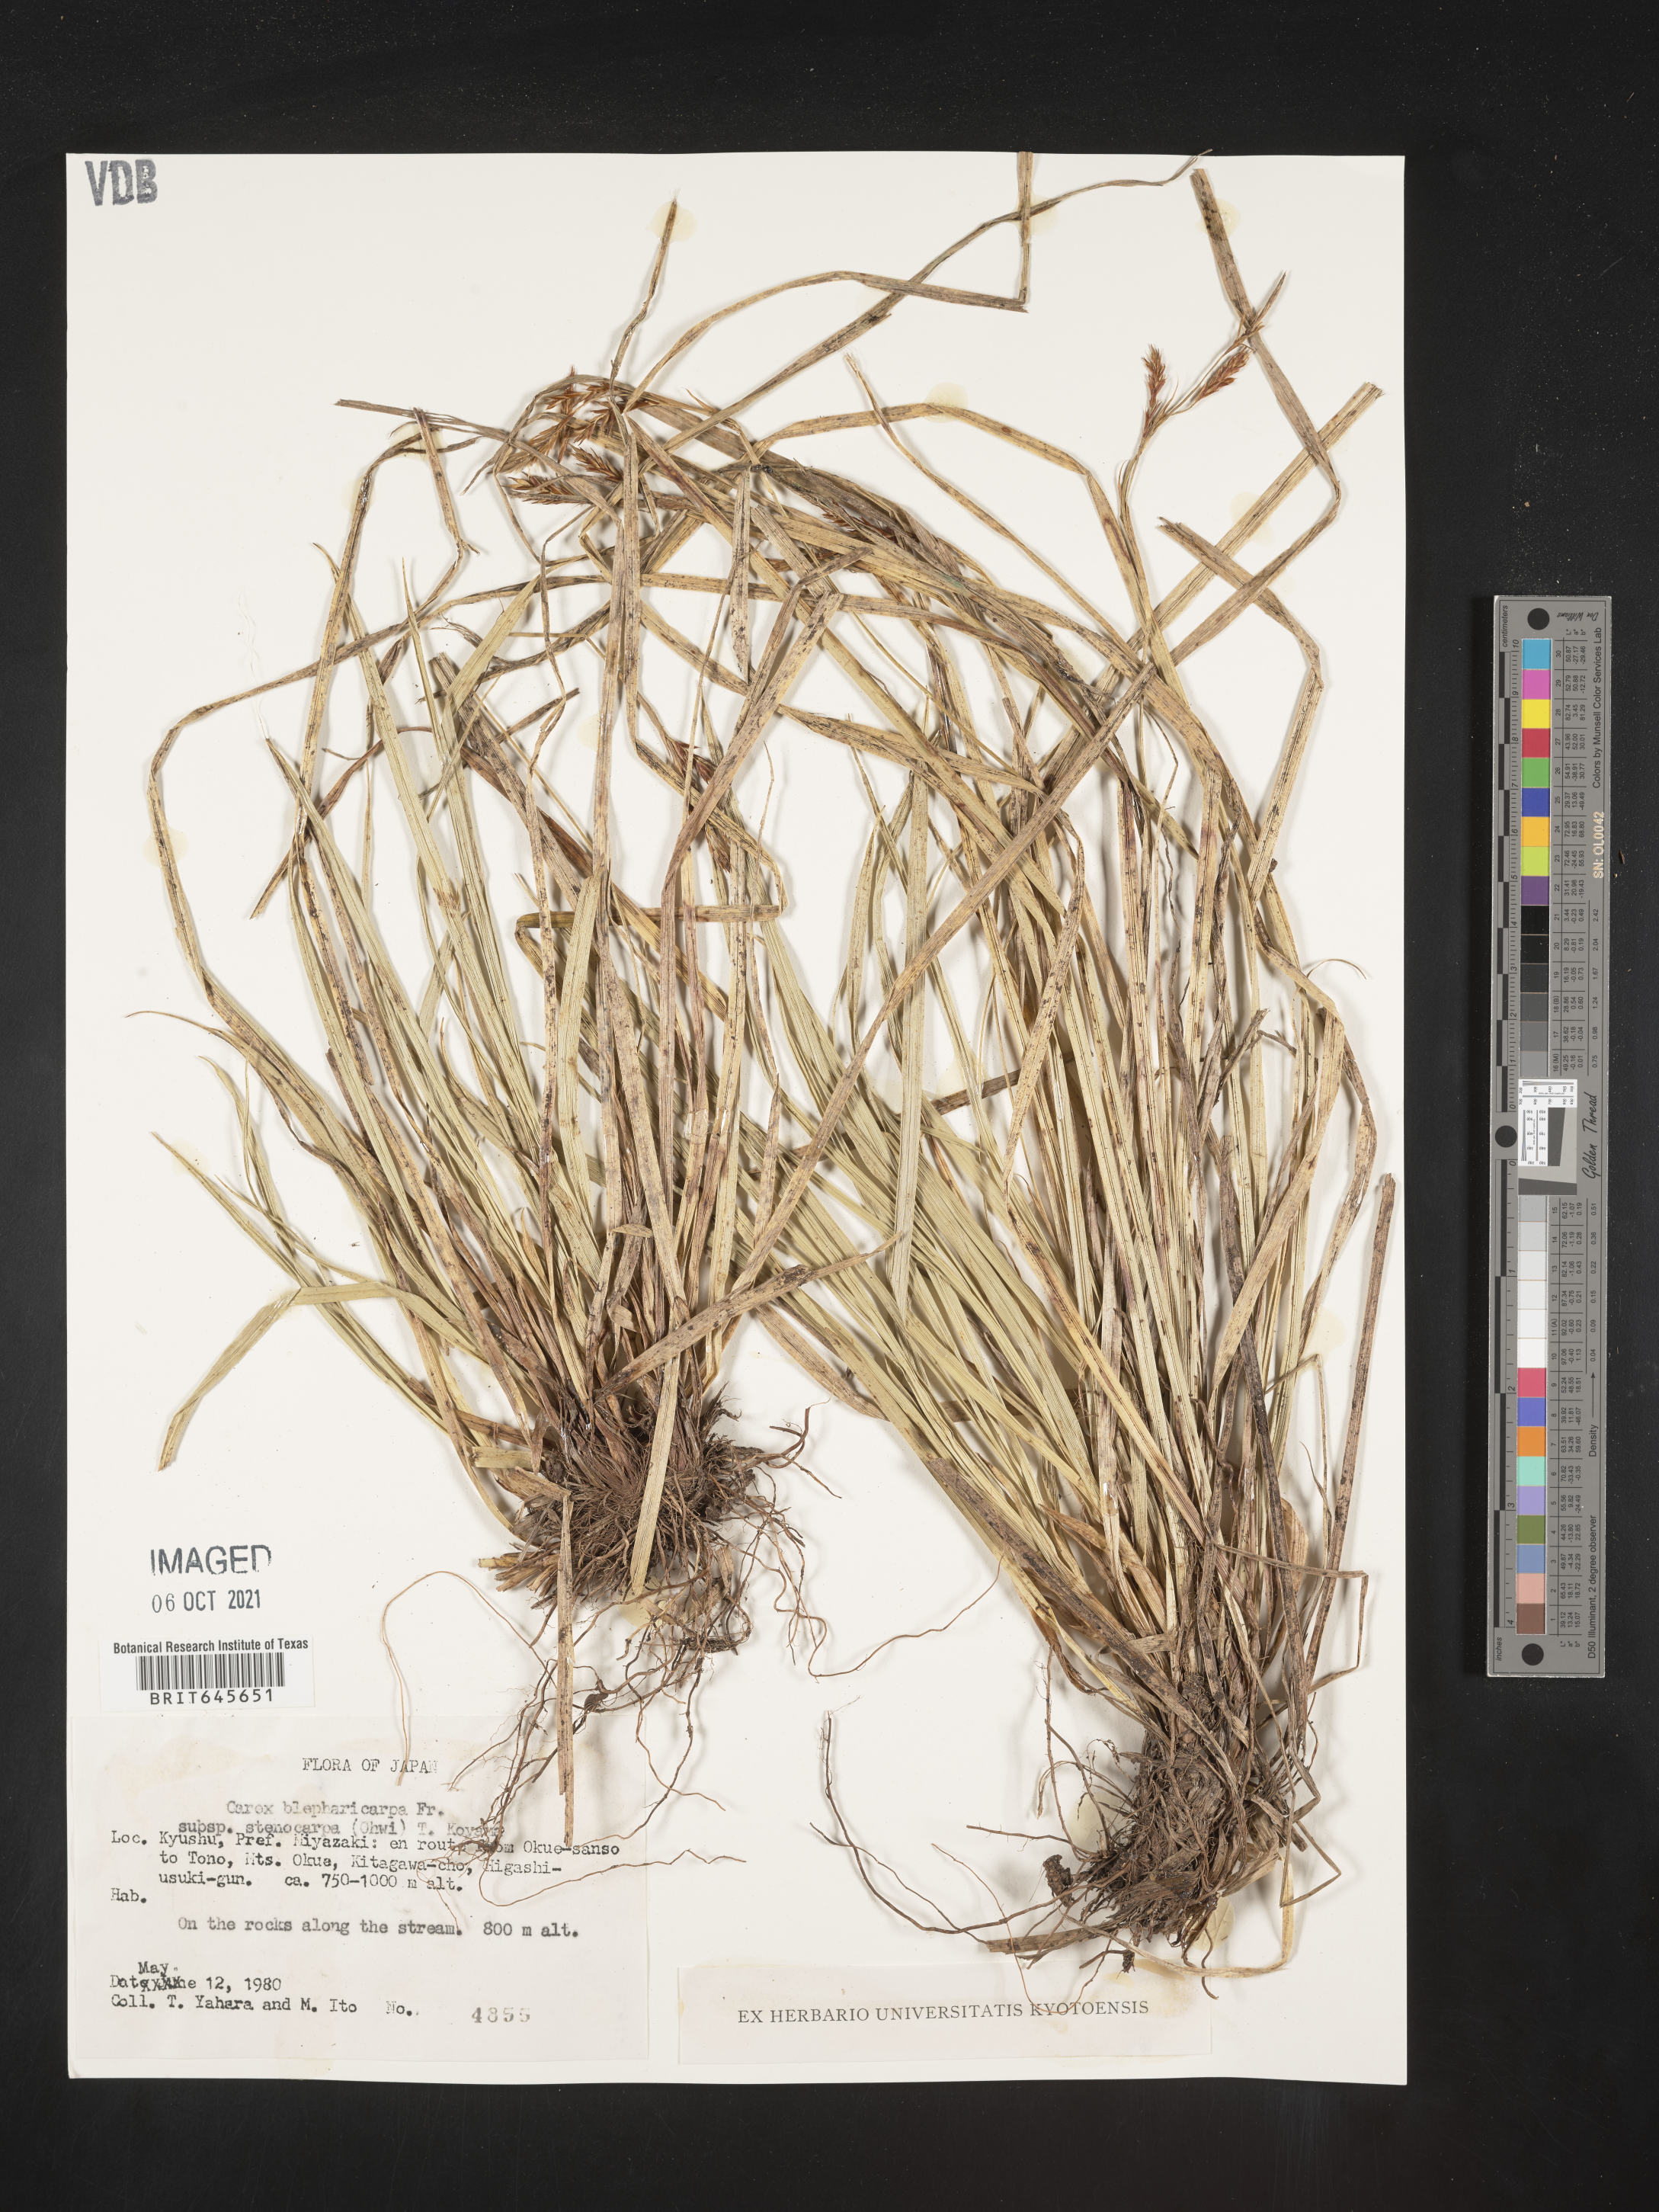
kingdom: Plantae
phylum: Tracheophyta
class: Liliopsida
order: Poales
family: Cyperaceae
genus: Carex
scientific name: Carex blepharicarpa
